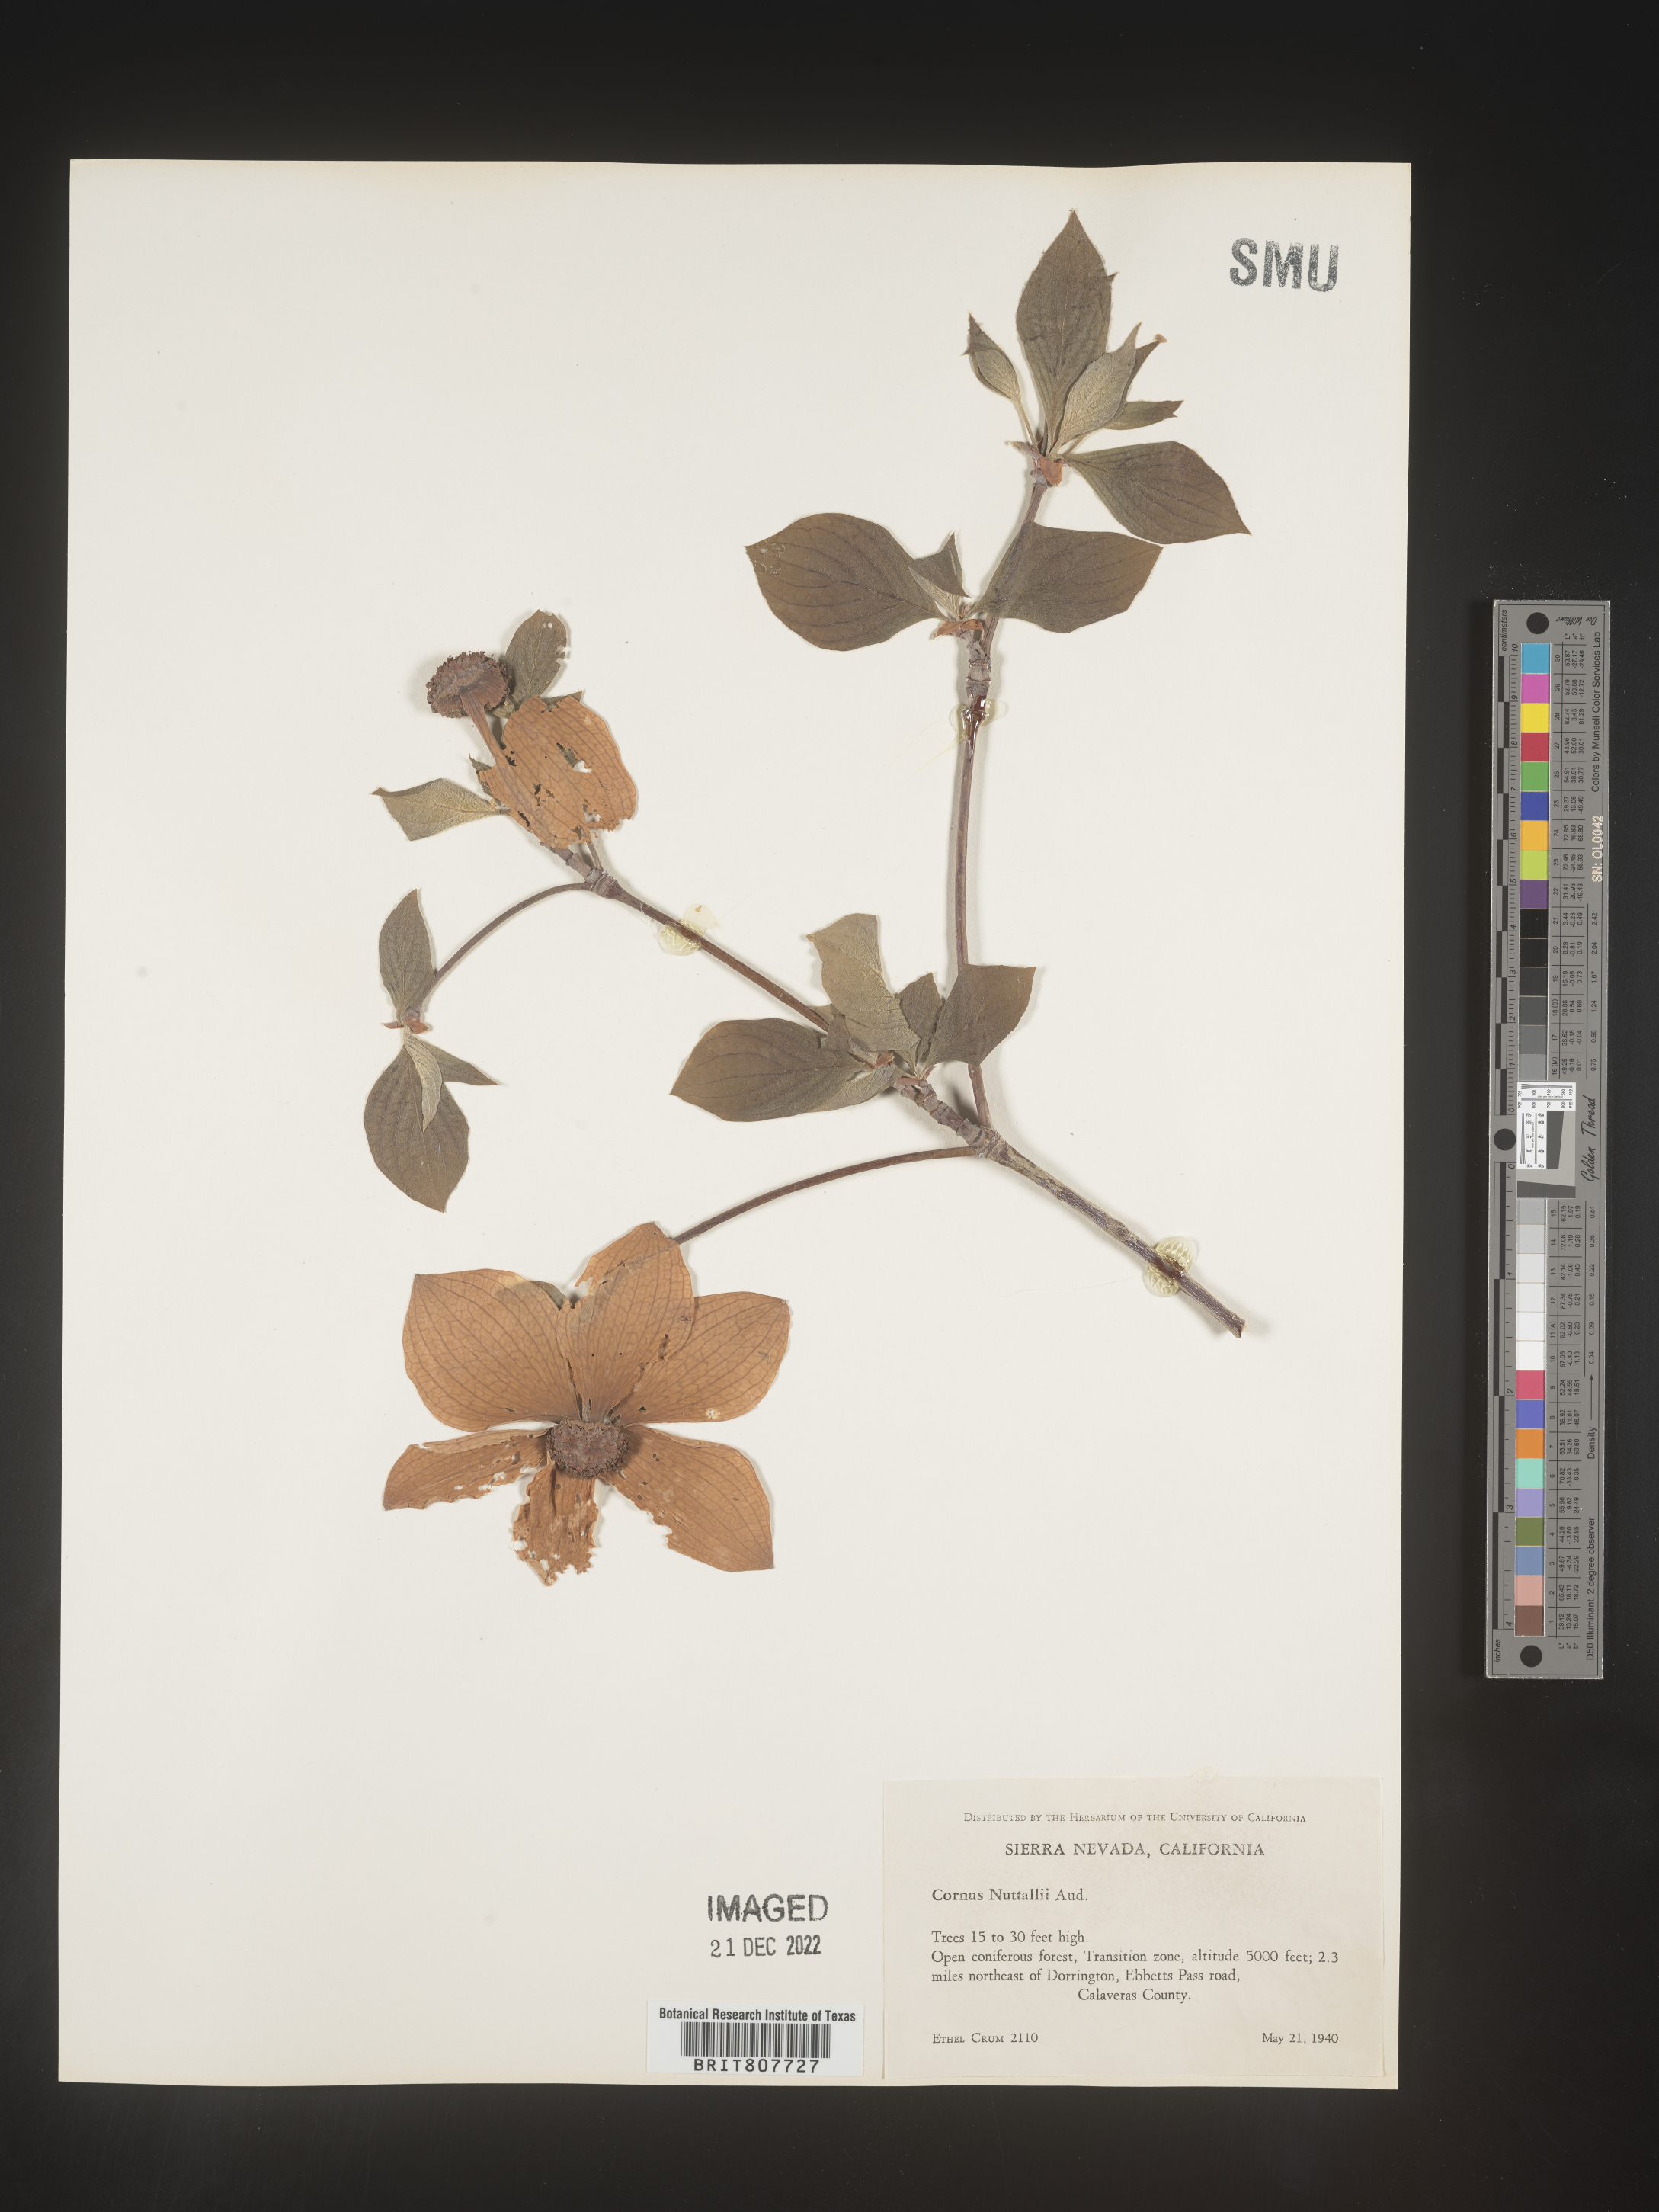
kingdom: Plantae
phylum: Tracheophyta
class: Magnoliopsida
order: Cornales
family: Cornaceae
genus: Cornus
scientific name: Cornus nuttallii
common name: Pacific dogwood
